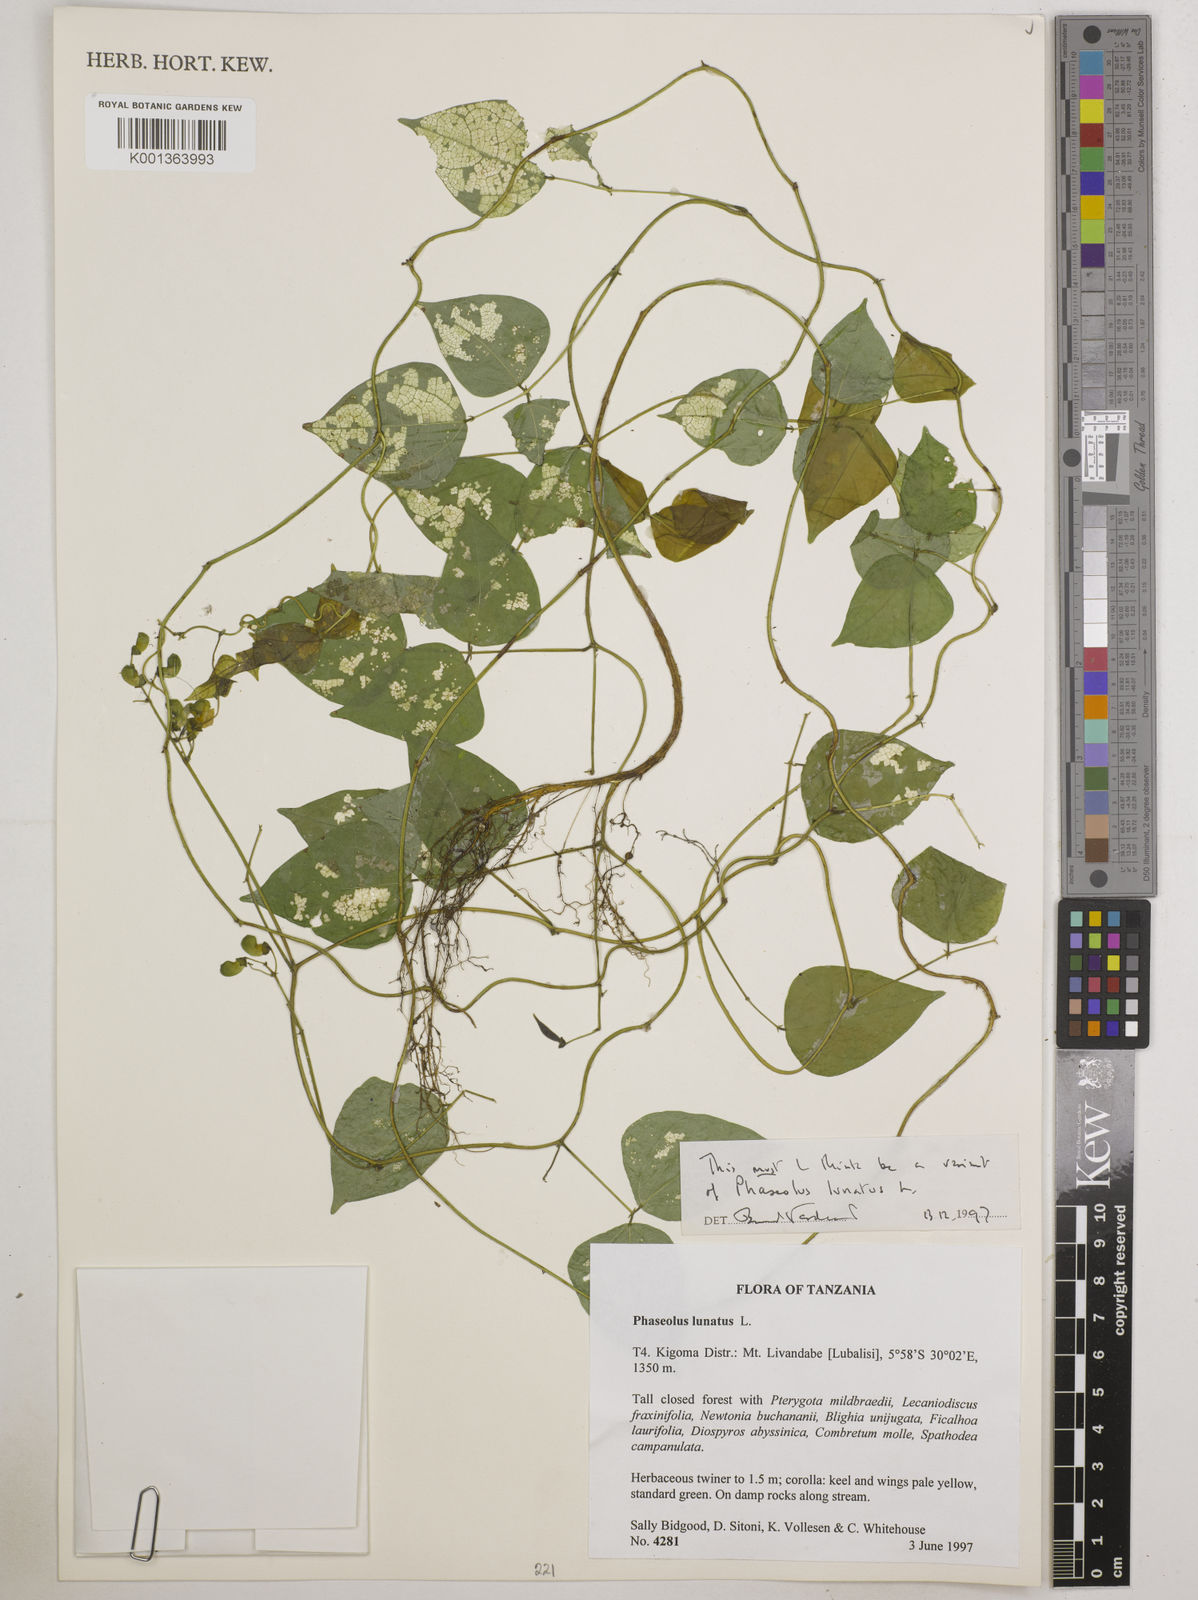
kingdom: Plantae
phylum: Tracheophyta
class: Magnoliopsida
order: Fabales
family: Fabaceae
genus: Phaseolus
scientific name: Phaseolus lunatus
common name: Sieva bean
